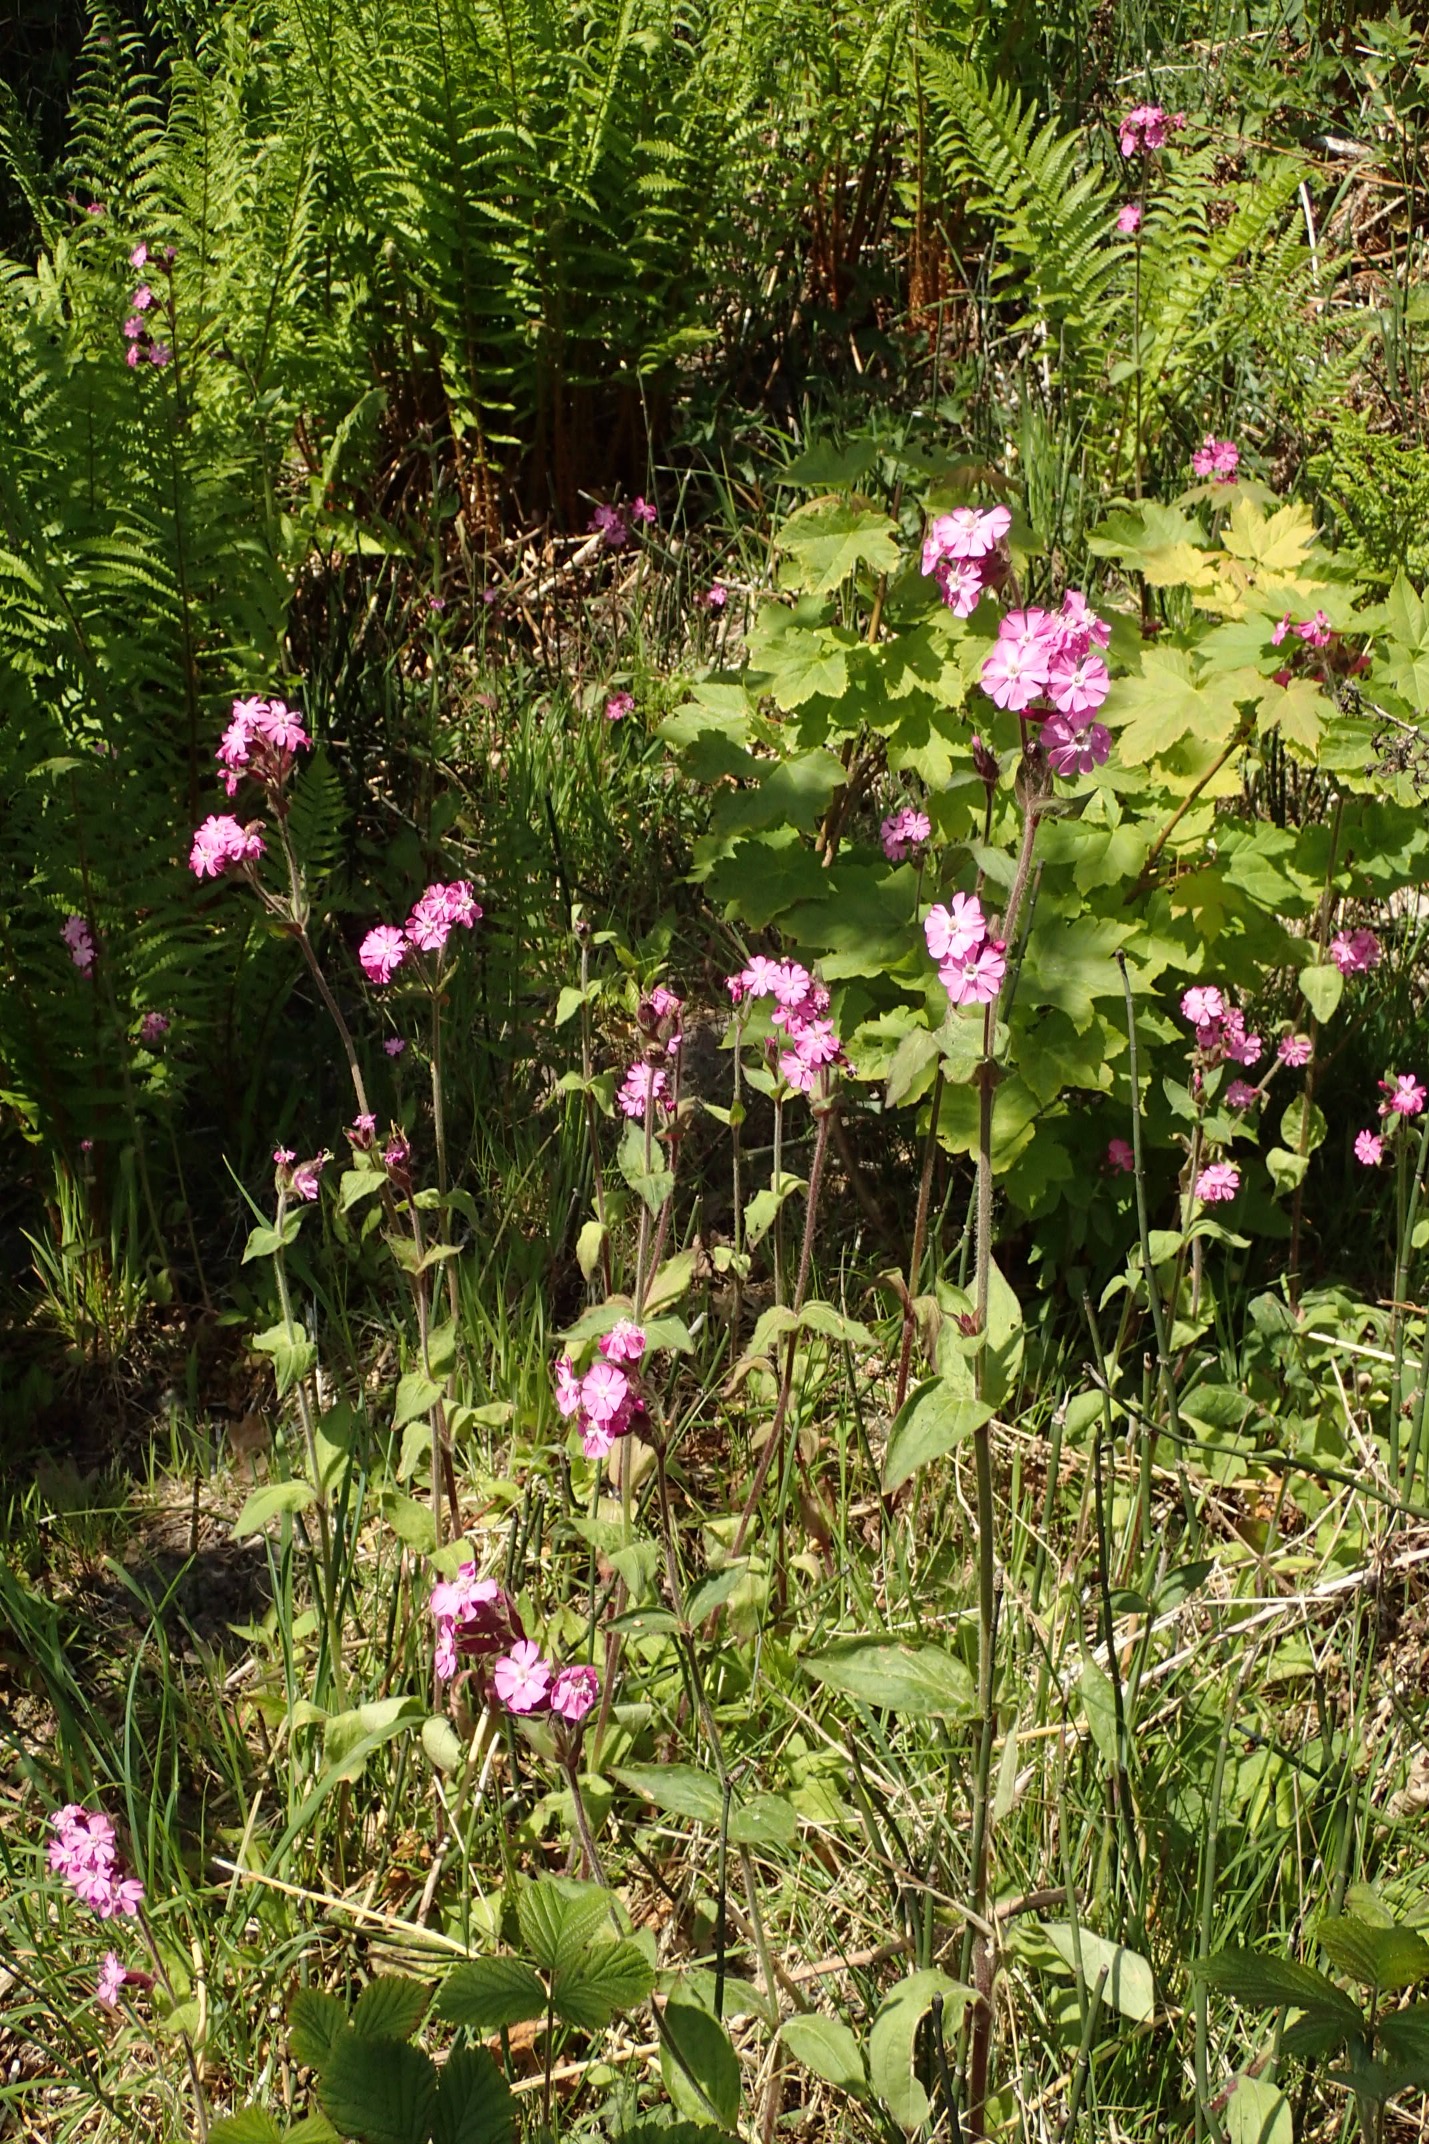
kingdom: Plantae
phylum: Tracheophyta
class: Magnoliopsida
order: Caryophyllales
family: Caryophyllaceae
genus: Silene
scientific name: Silene dioica
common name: Dagpragtstjerne
